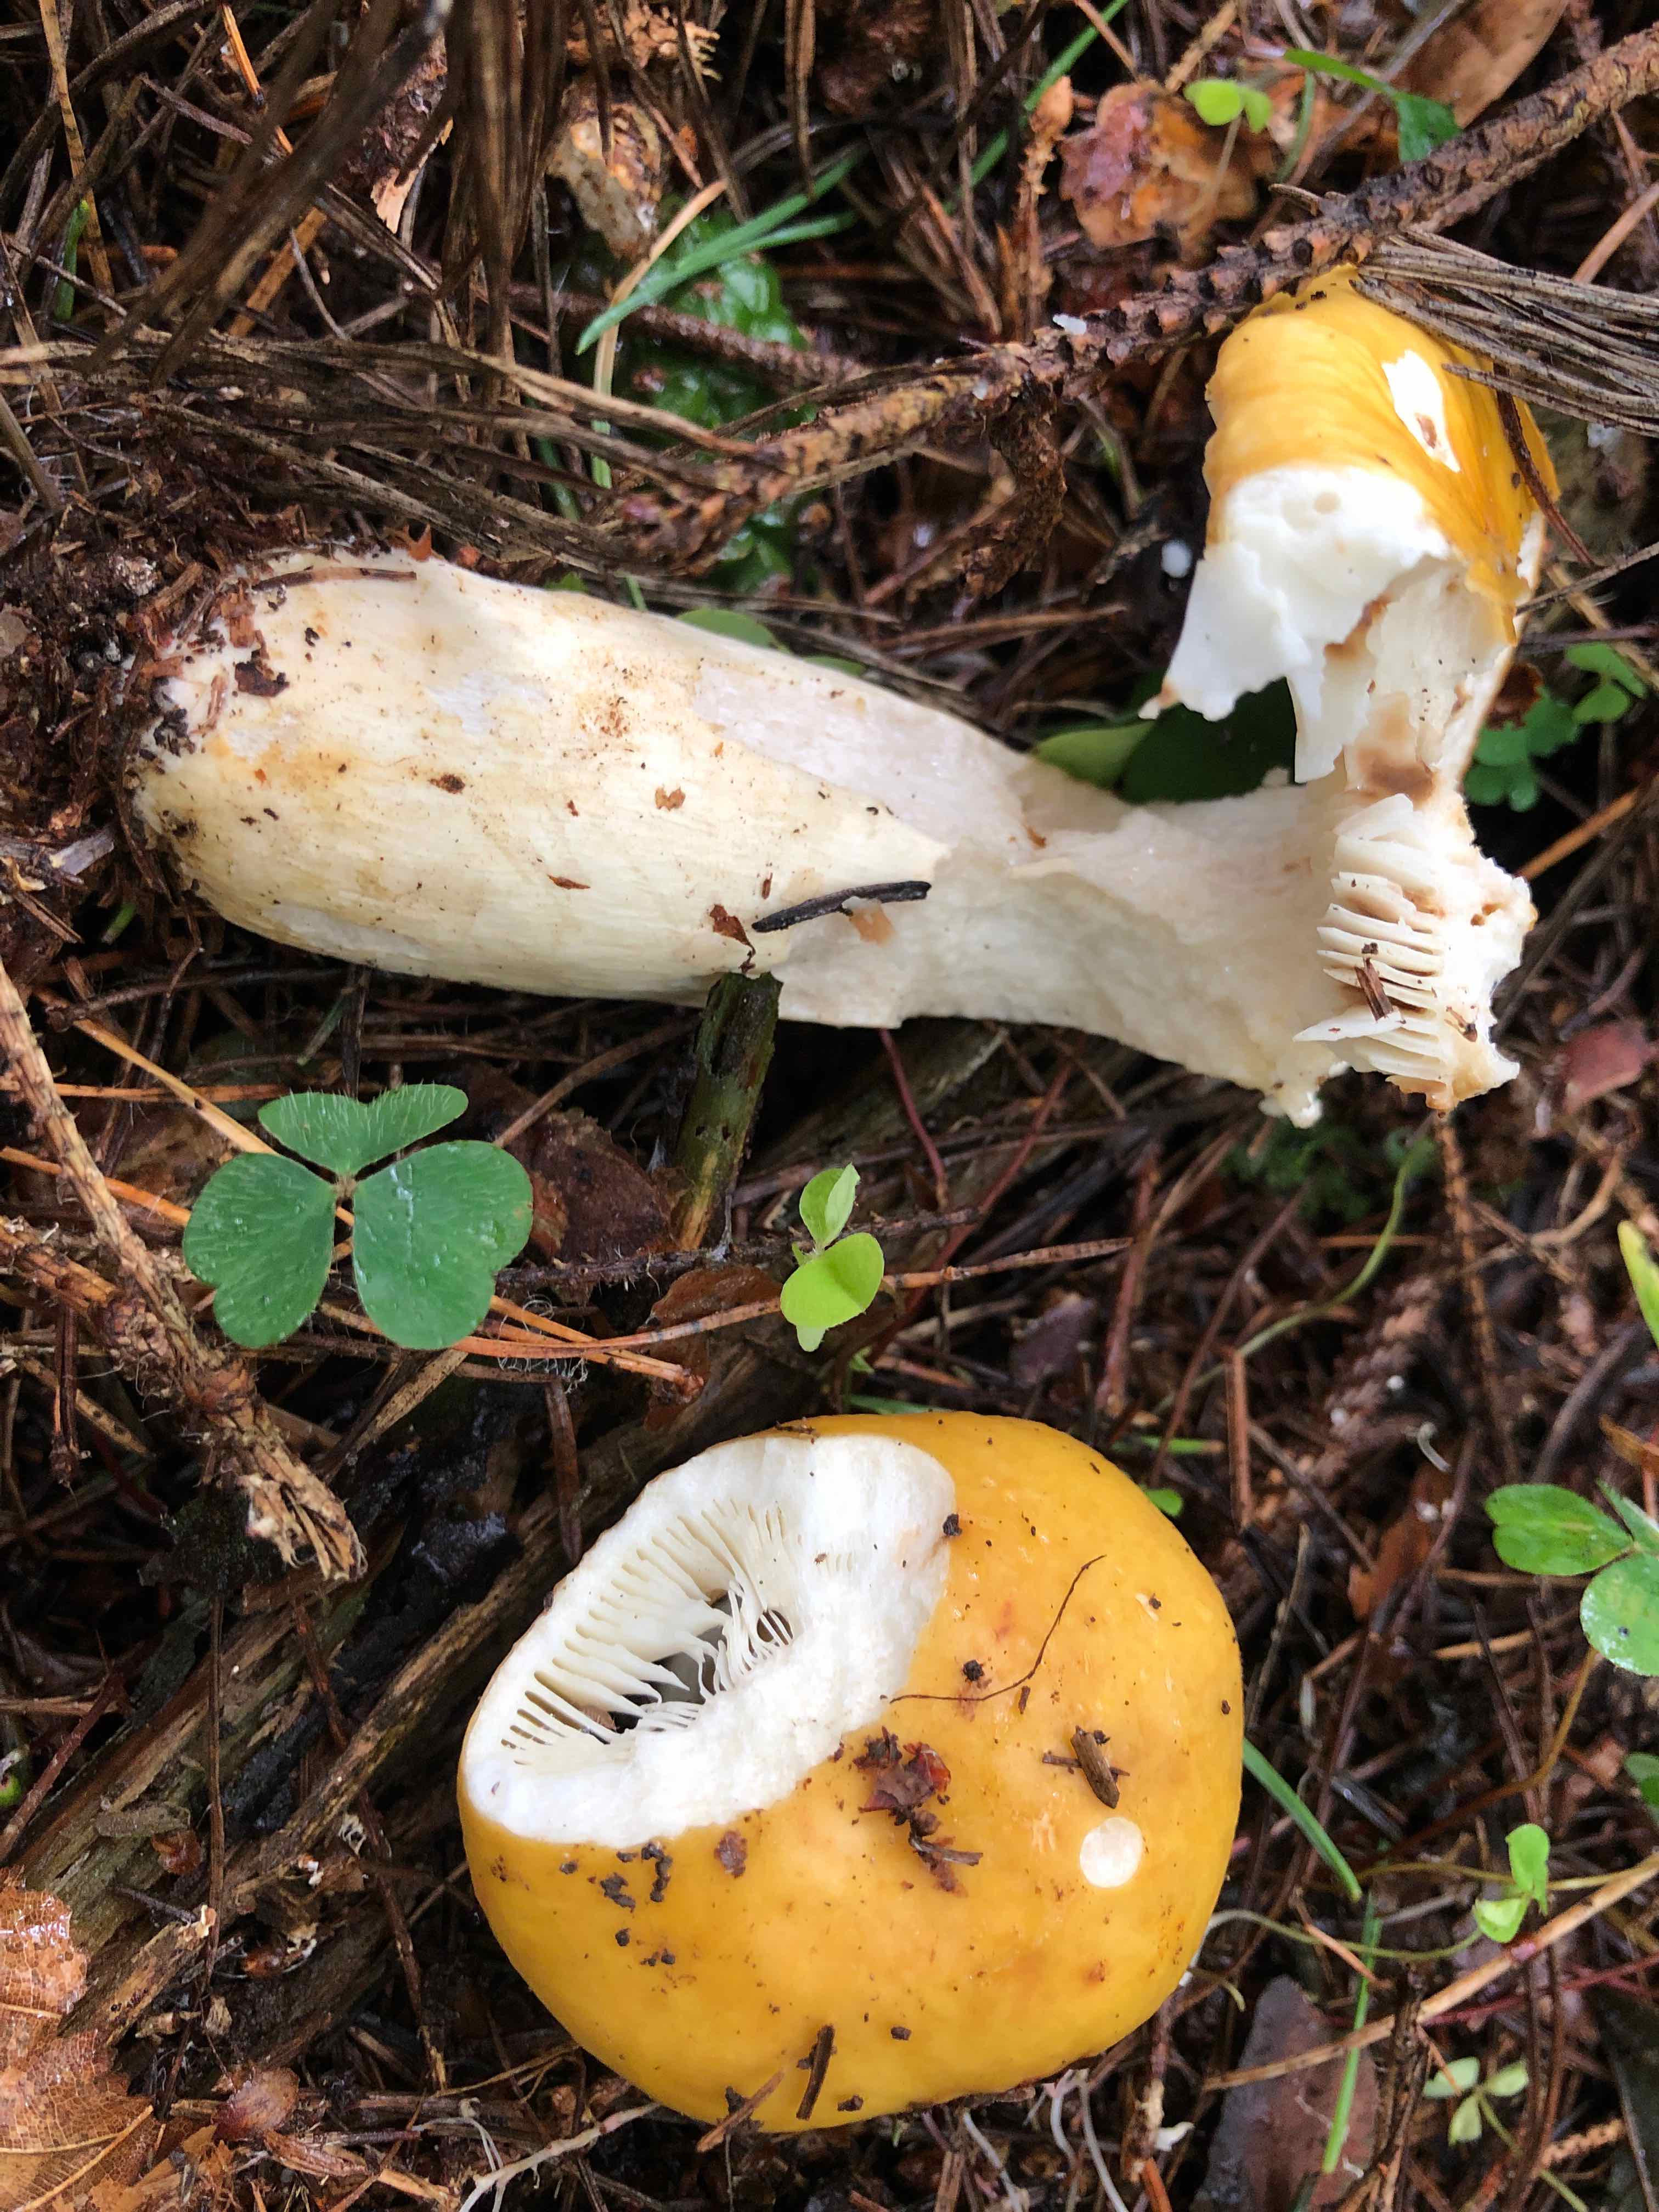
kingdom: Fungi
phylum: Basidiomycota
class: Agaricomycetes
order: Russulales
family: Russulaceae
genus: Russula
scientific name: Russula ochroleuca
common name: okkergul skørhat
